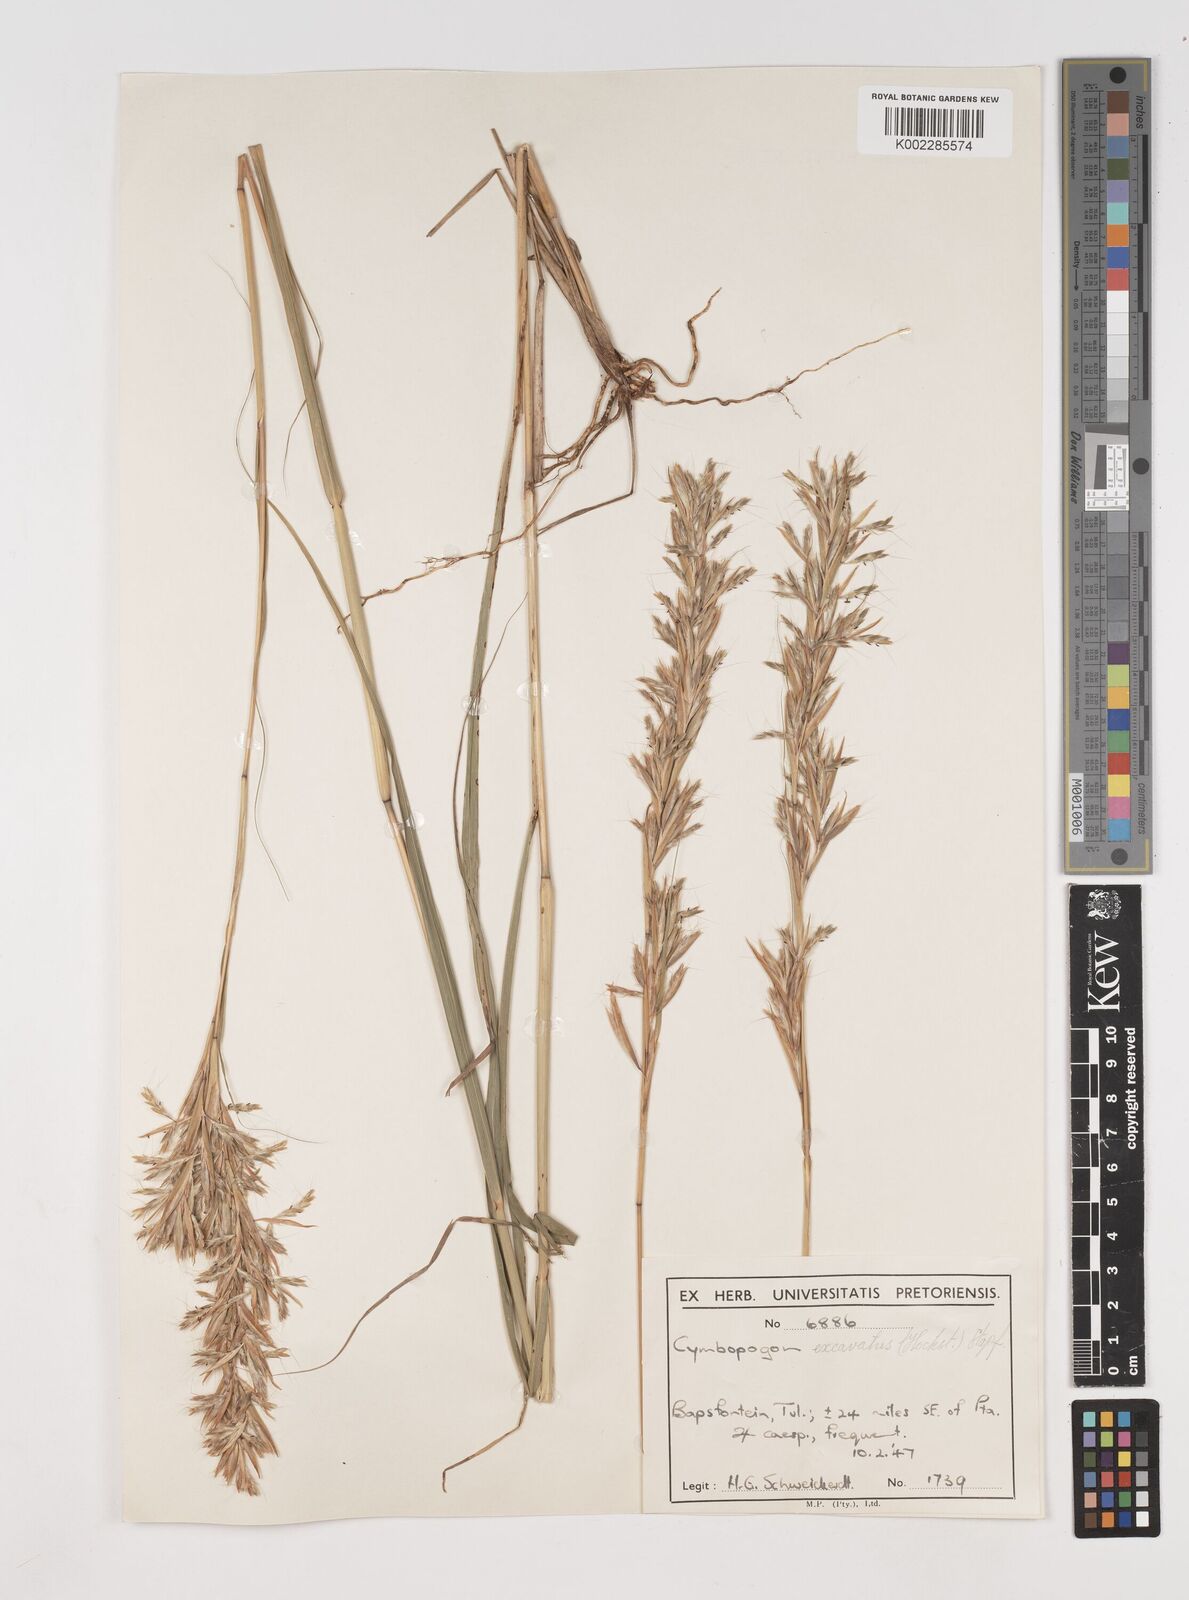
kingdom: Plantae
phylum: Tracheophyta
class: Liliopsida
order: Poales
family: Poaceae
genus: Cymbopogon
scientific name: Cymbopogon caesius
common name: Kachi grass
